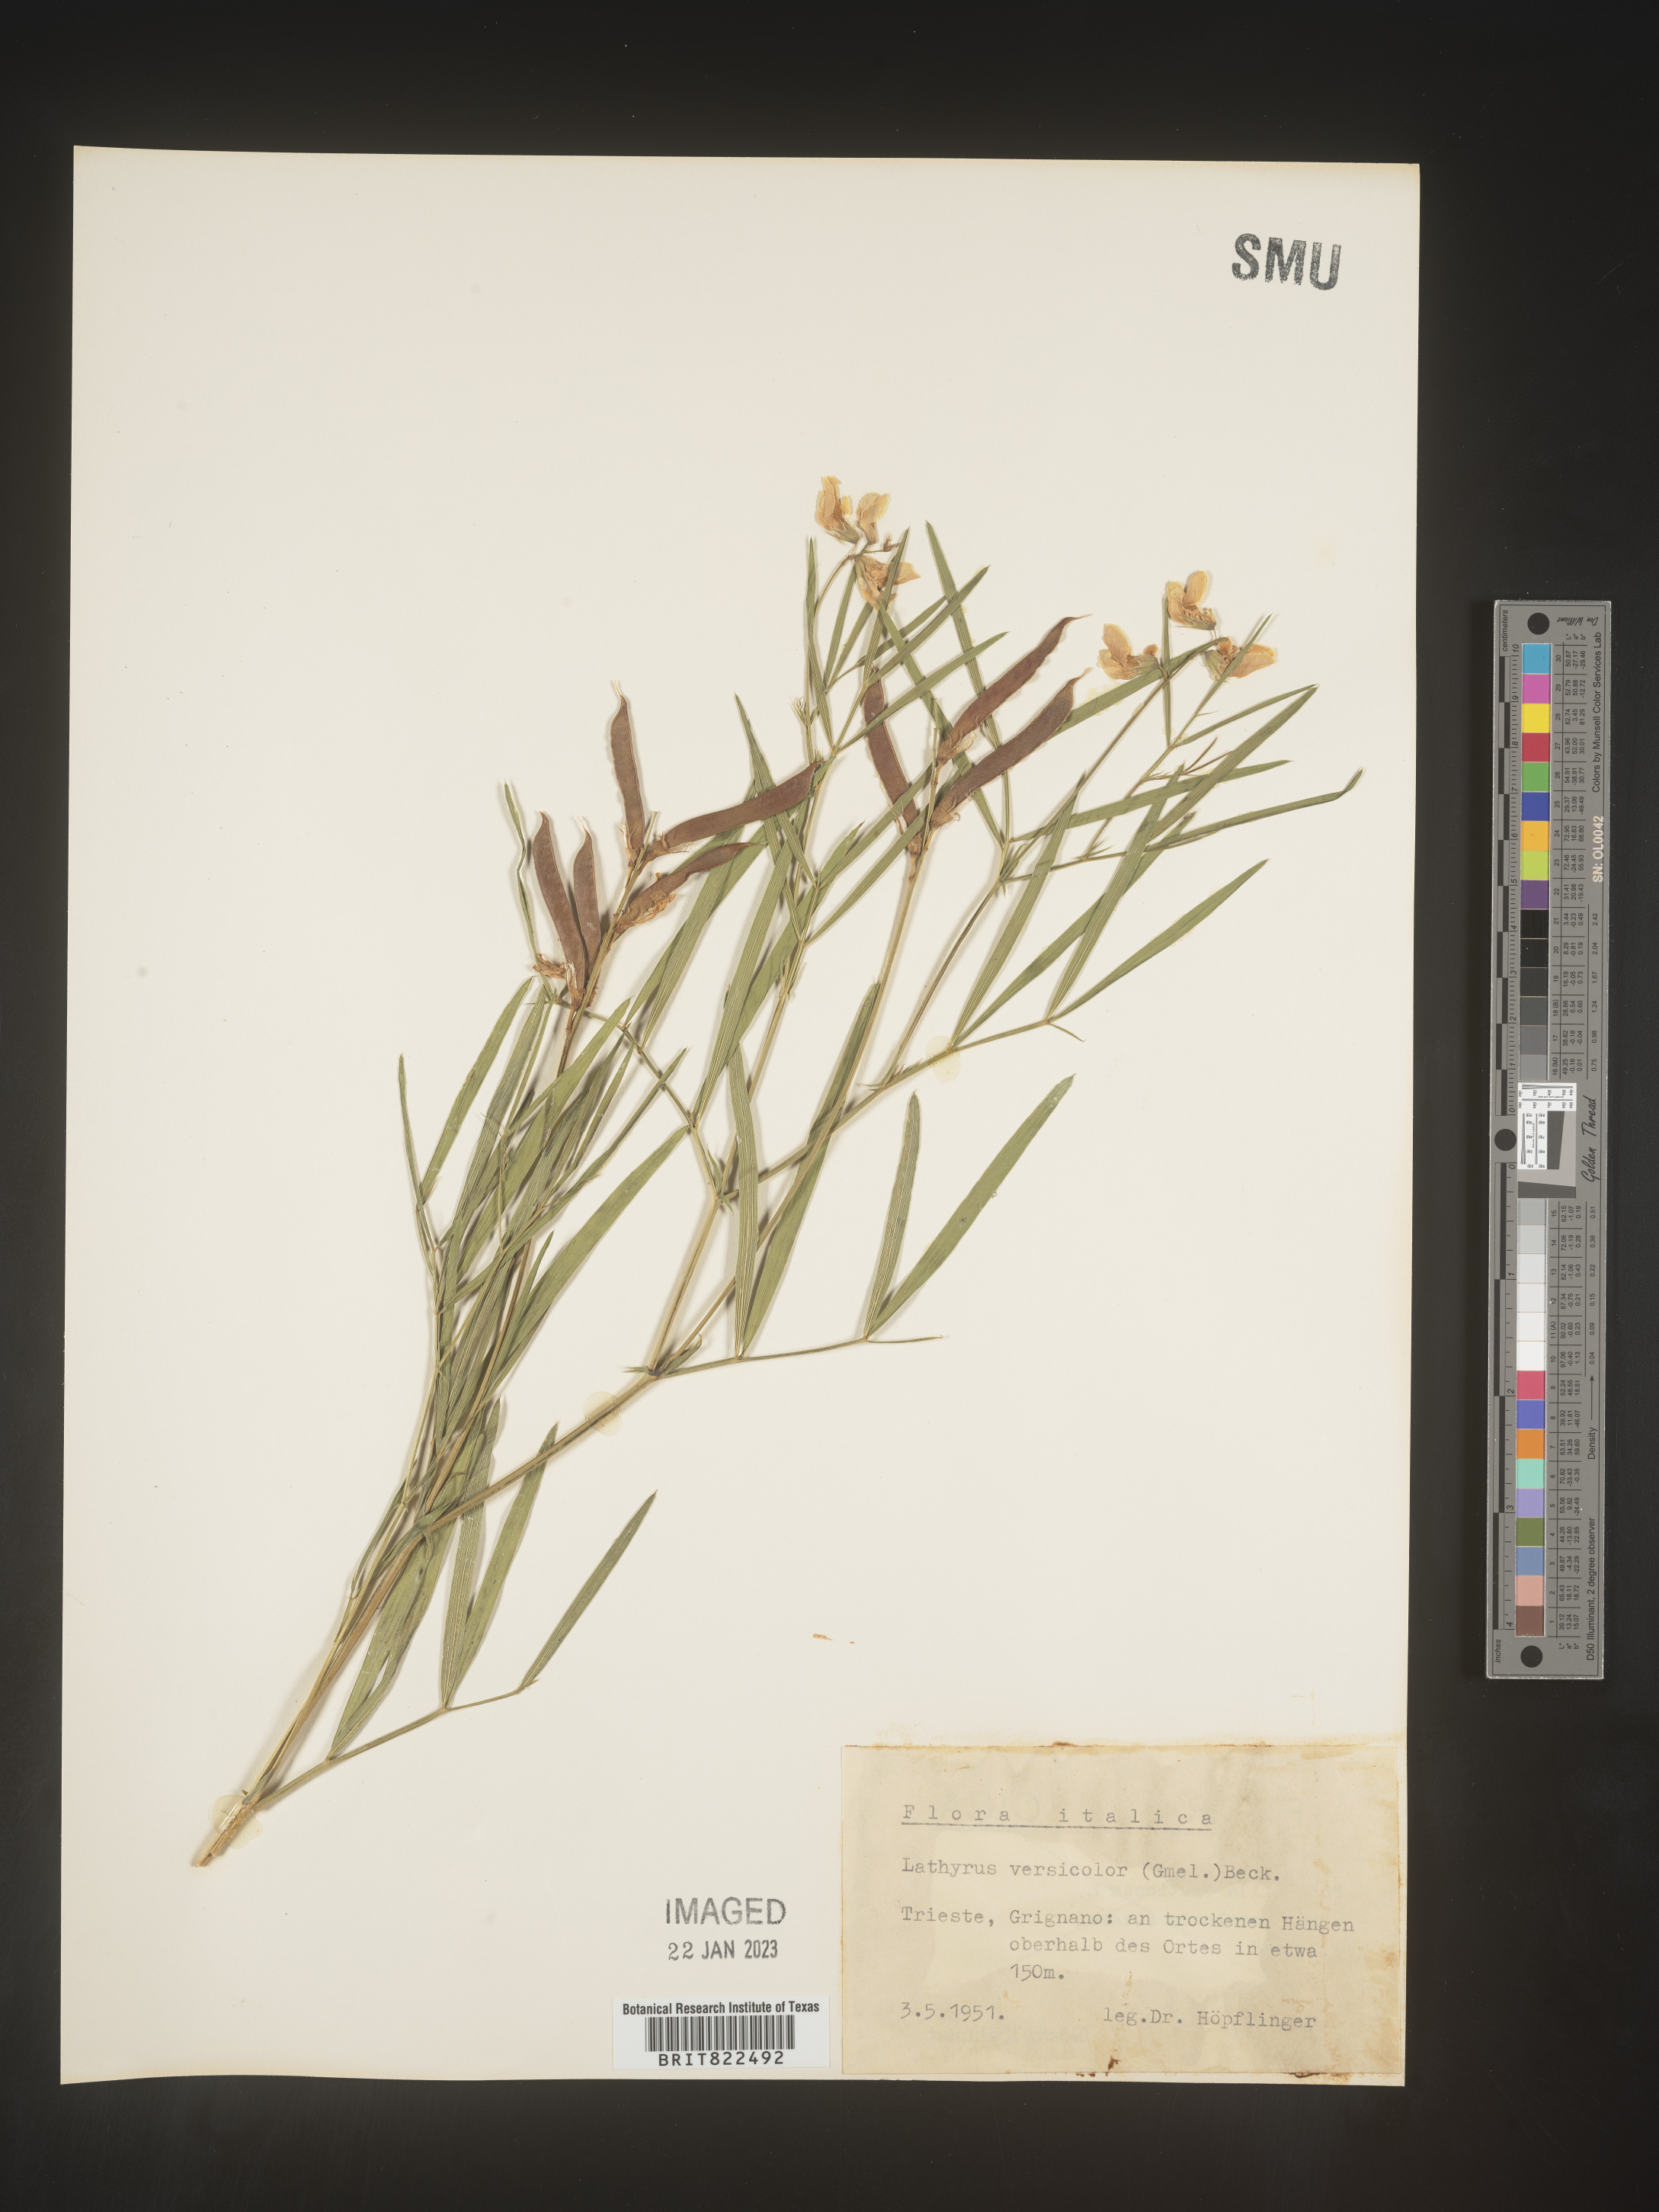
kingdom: Plantae
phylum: Tracheophyta
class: Magnoliopsida
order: Fabales
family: Fabaceae
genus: Lathyrus
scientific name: Lathyrus
